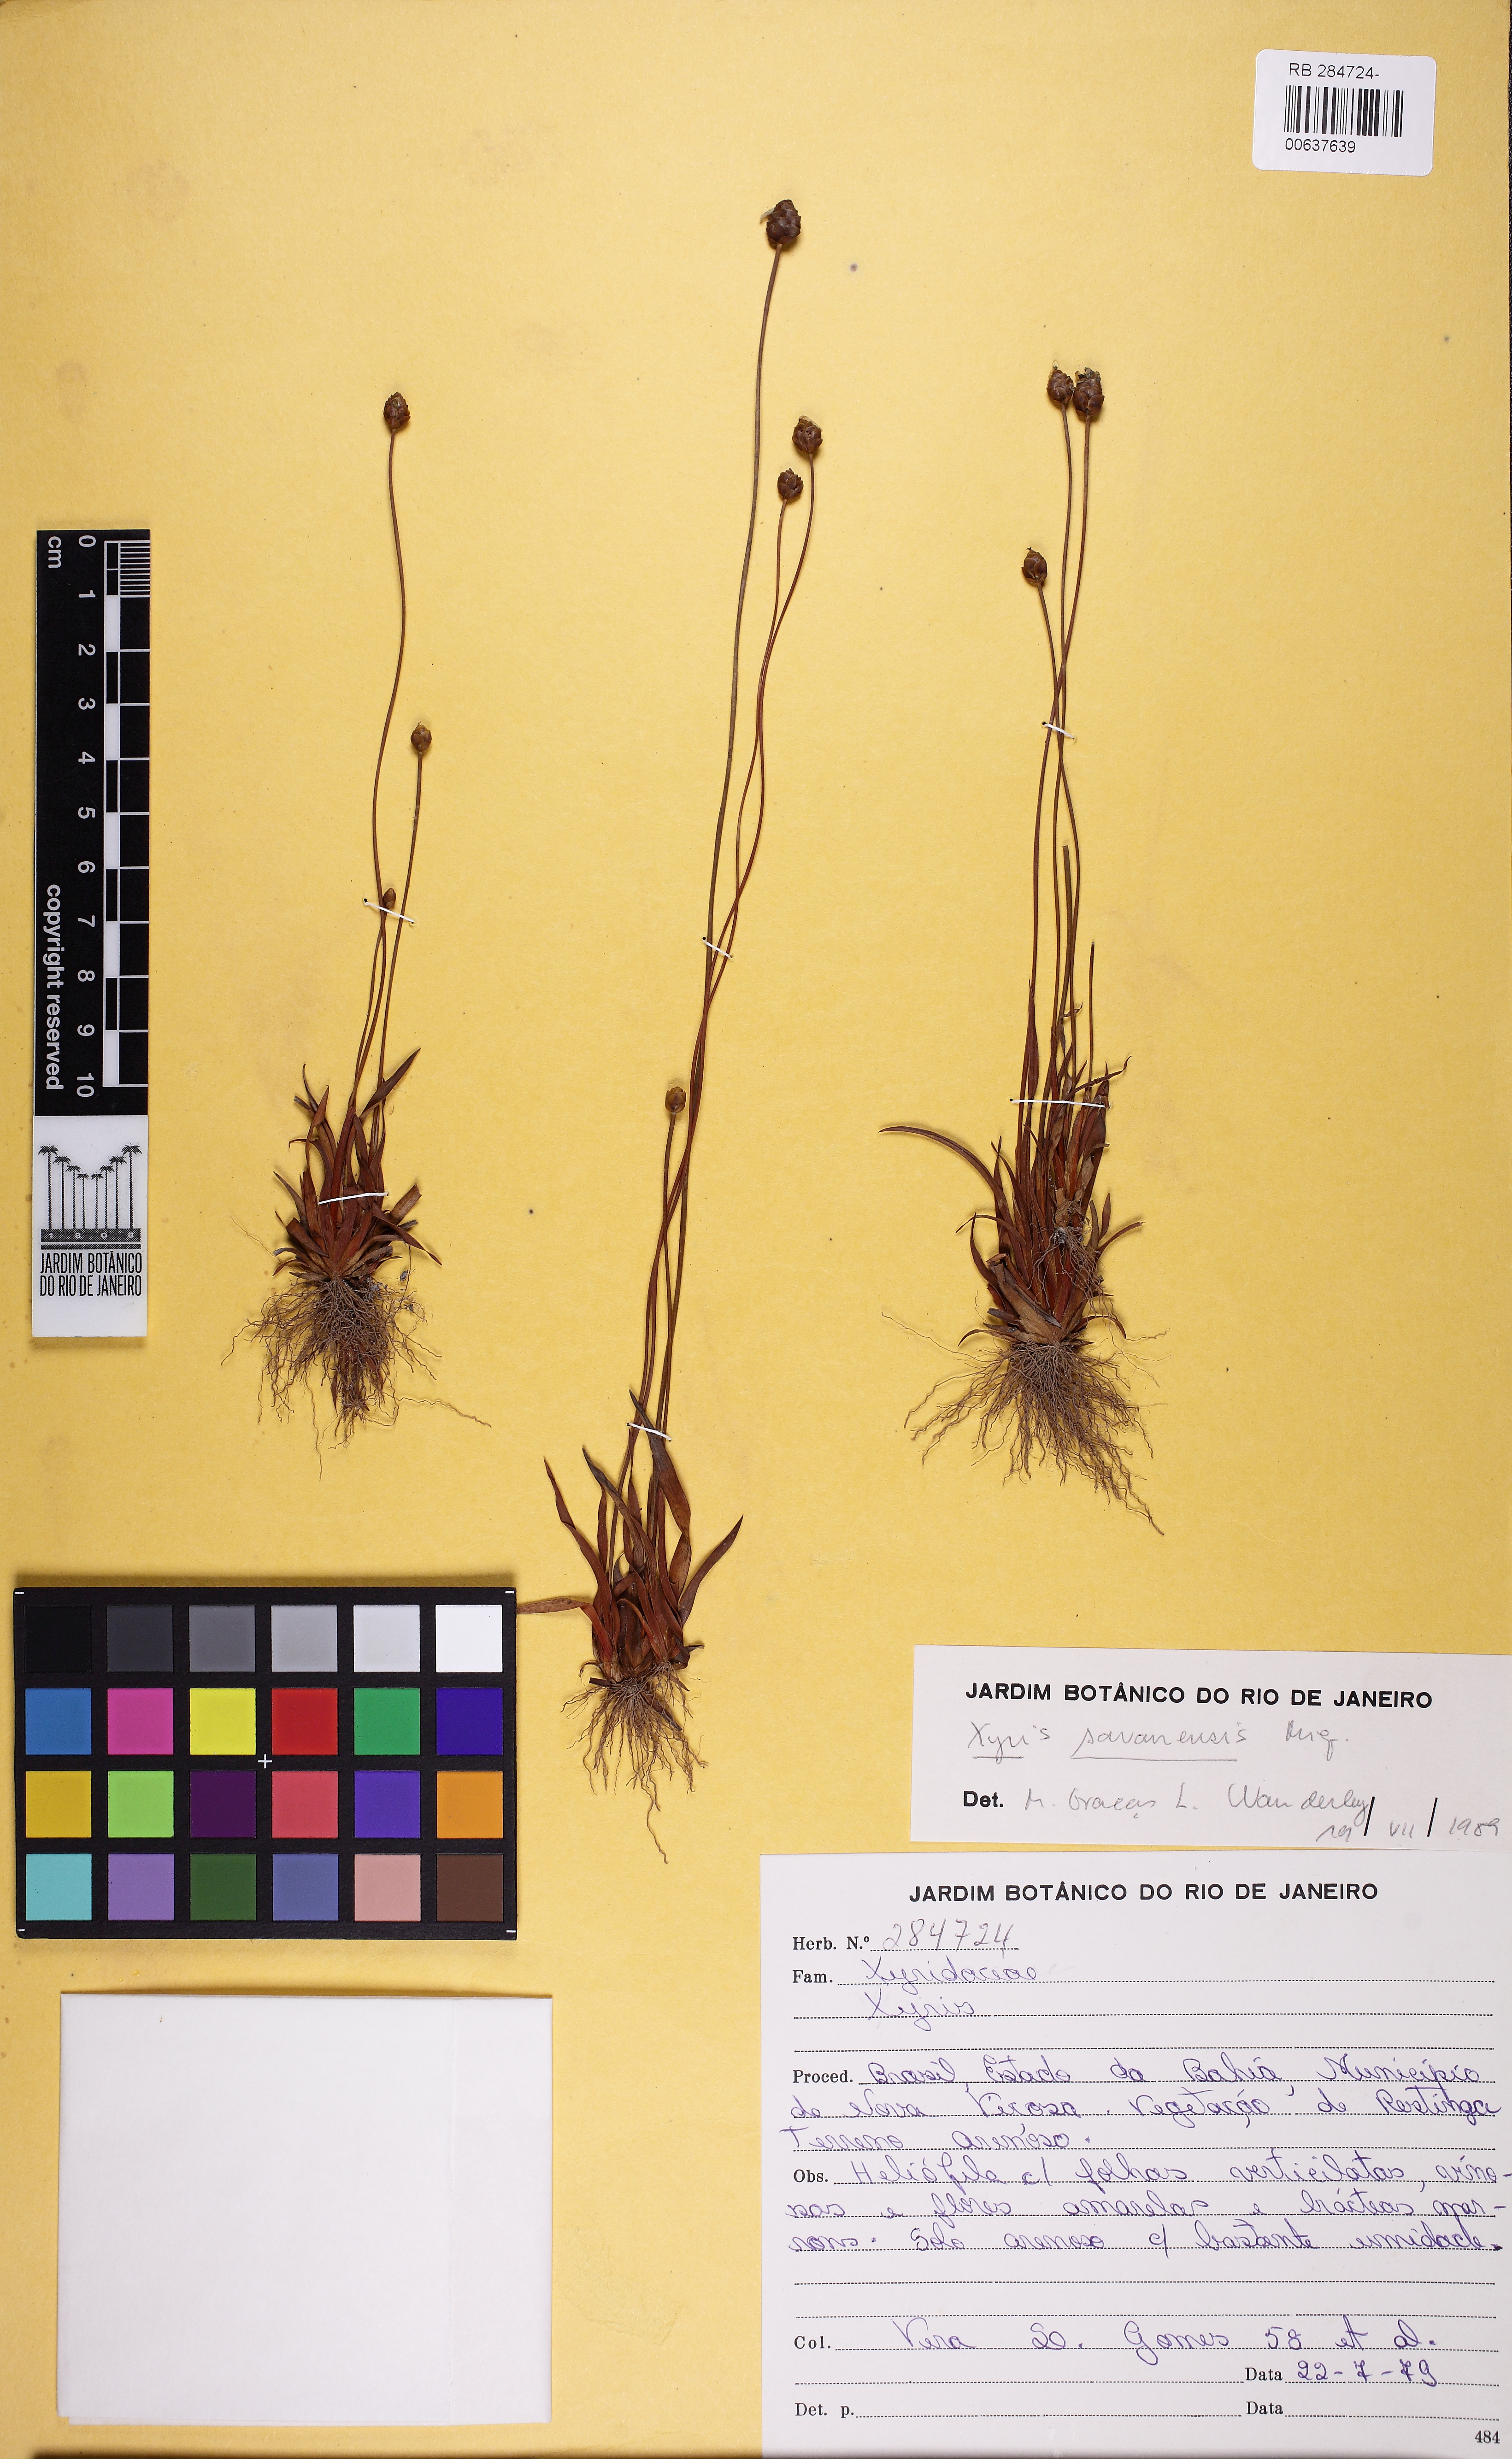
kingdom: Plantae
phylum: Tracheophyta
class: Liliopsida
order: Poales
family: Xyridaceae
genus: Xyris
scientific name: Xyris savanensis
